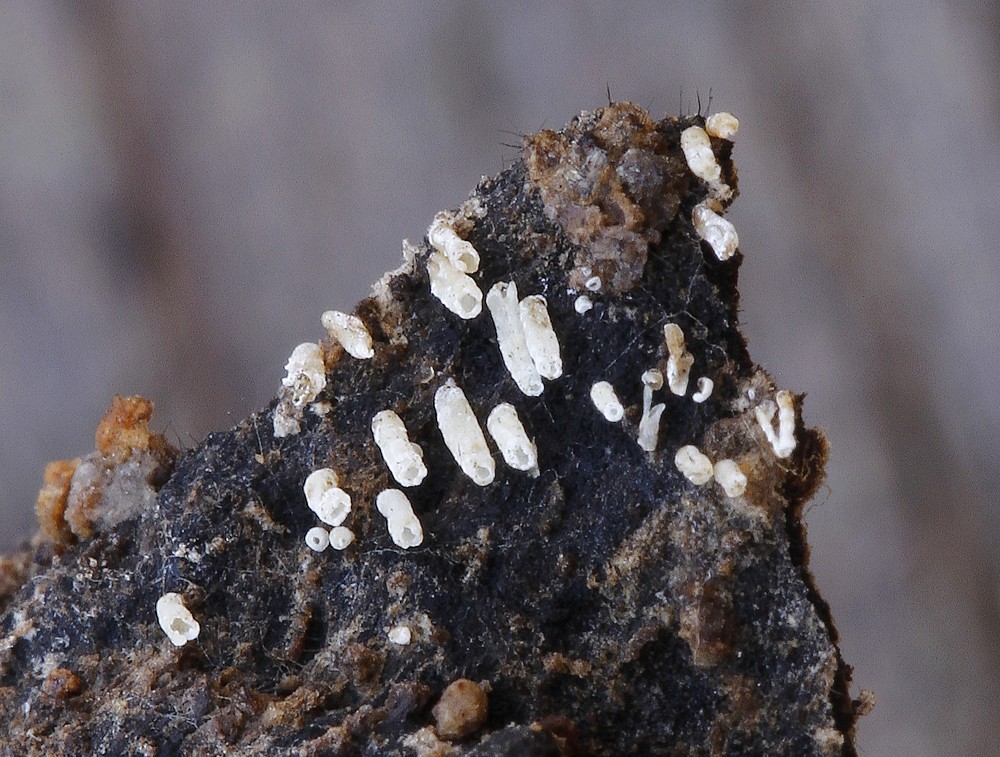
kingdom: Fungi
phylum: Basidiomycota
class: Agaricomycetes
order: Agaricales
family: Marasmiaceae
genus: Henningsomyces
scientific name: Henningsomyces candidus
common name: glat hængerør
